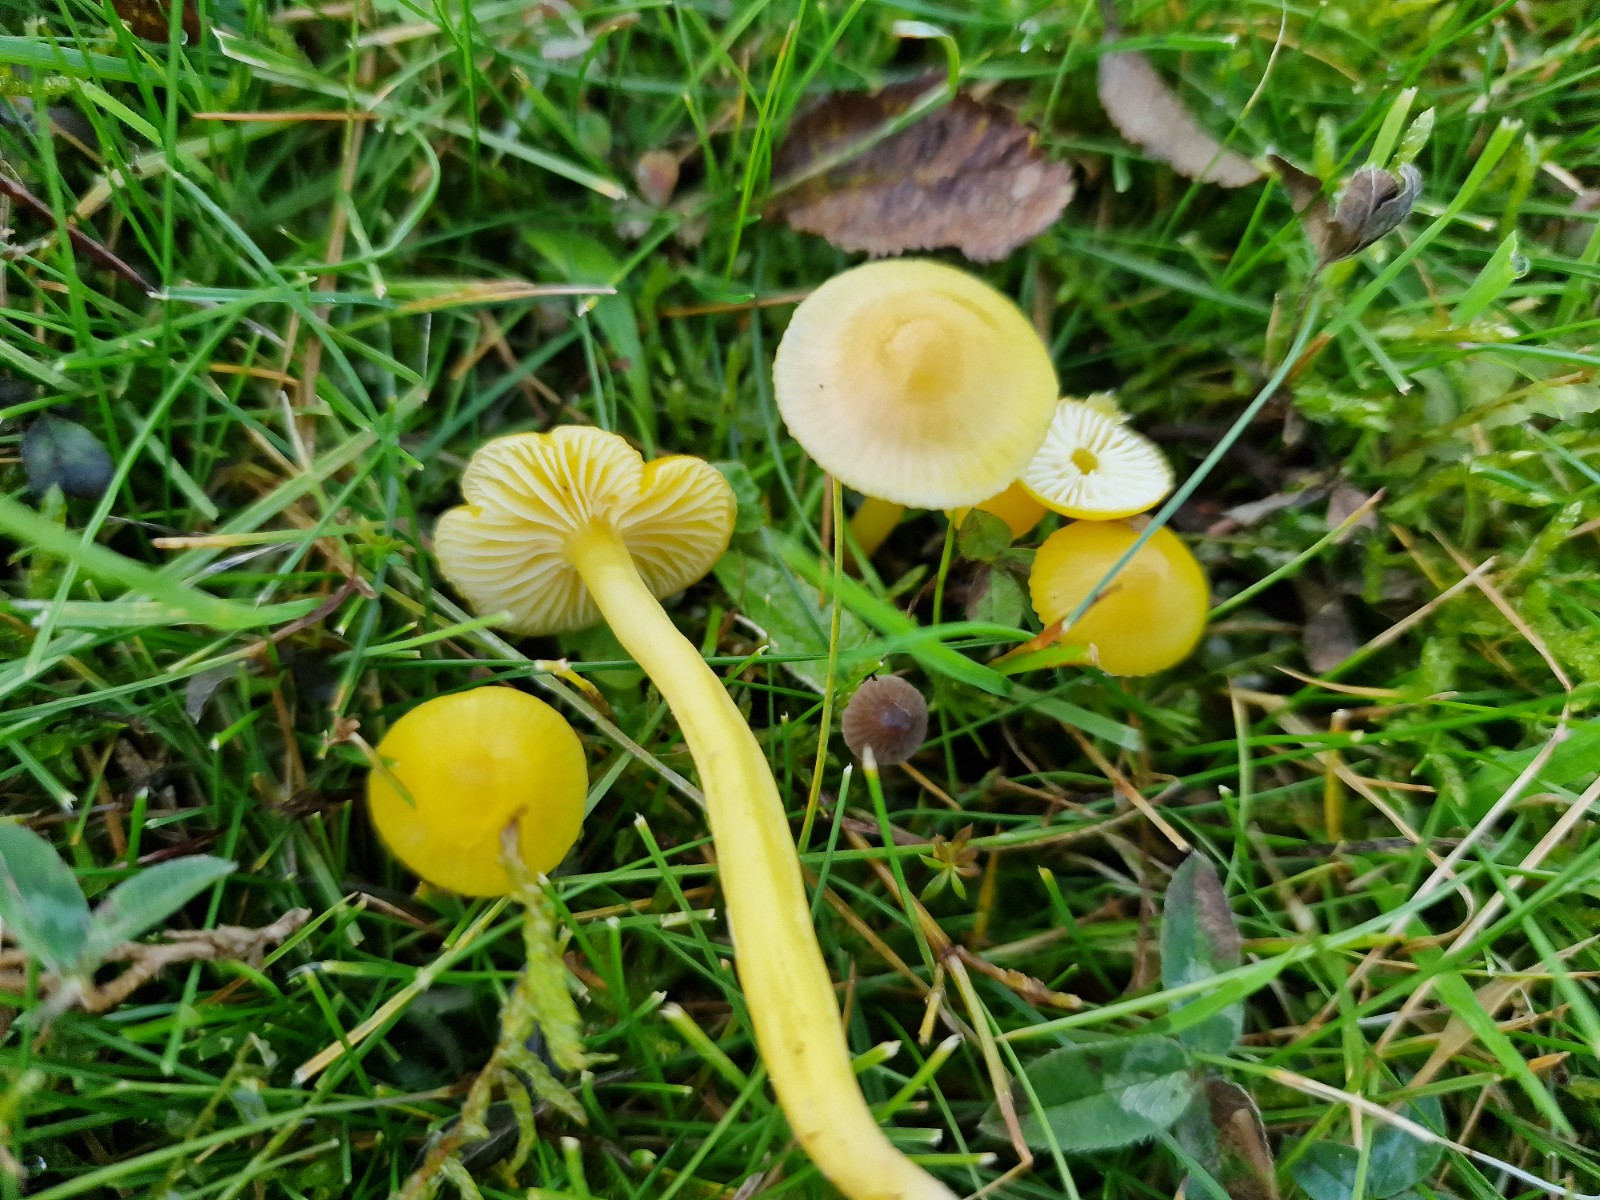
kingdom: Fungi
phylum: Basidiomycota
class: Agaricomycetes
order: Agaricales
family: Hygrophoraceae
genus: Hygrocybe
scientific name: Hygrocybe ceracea
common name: voksgul vokshat
